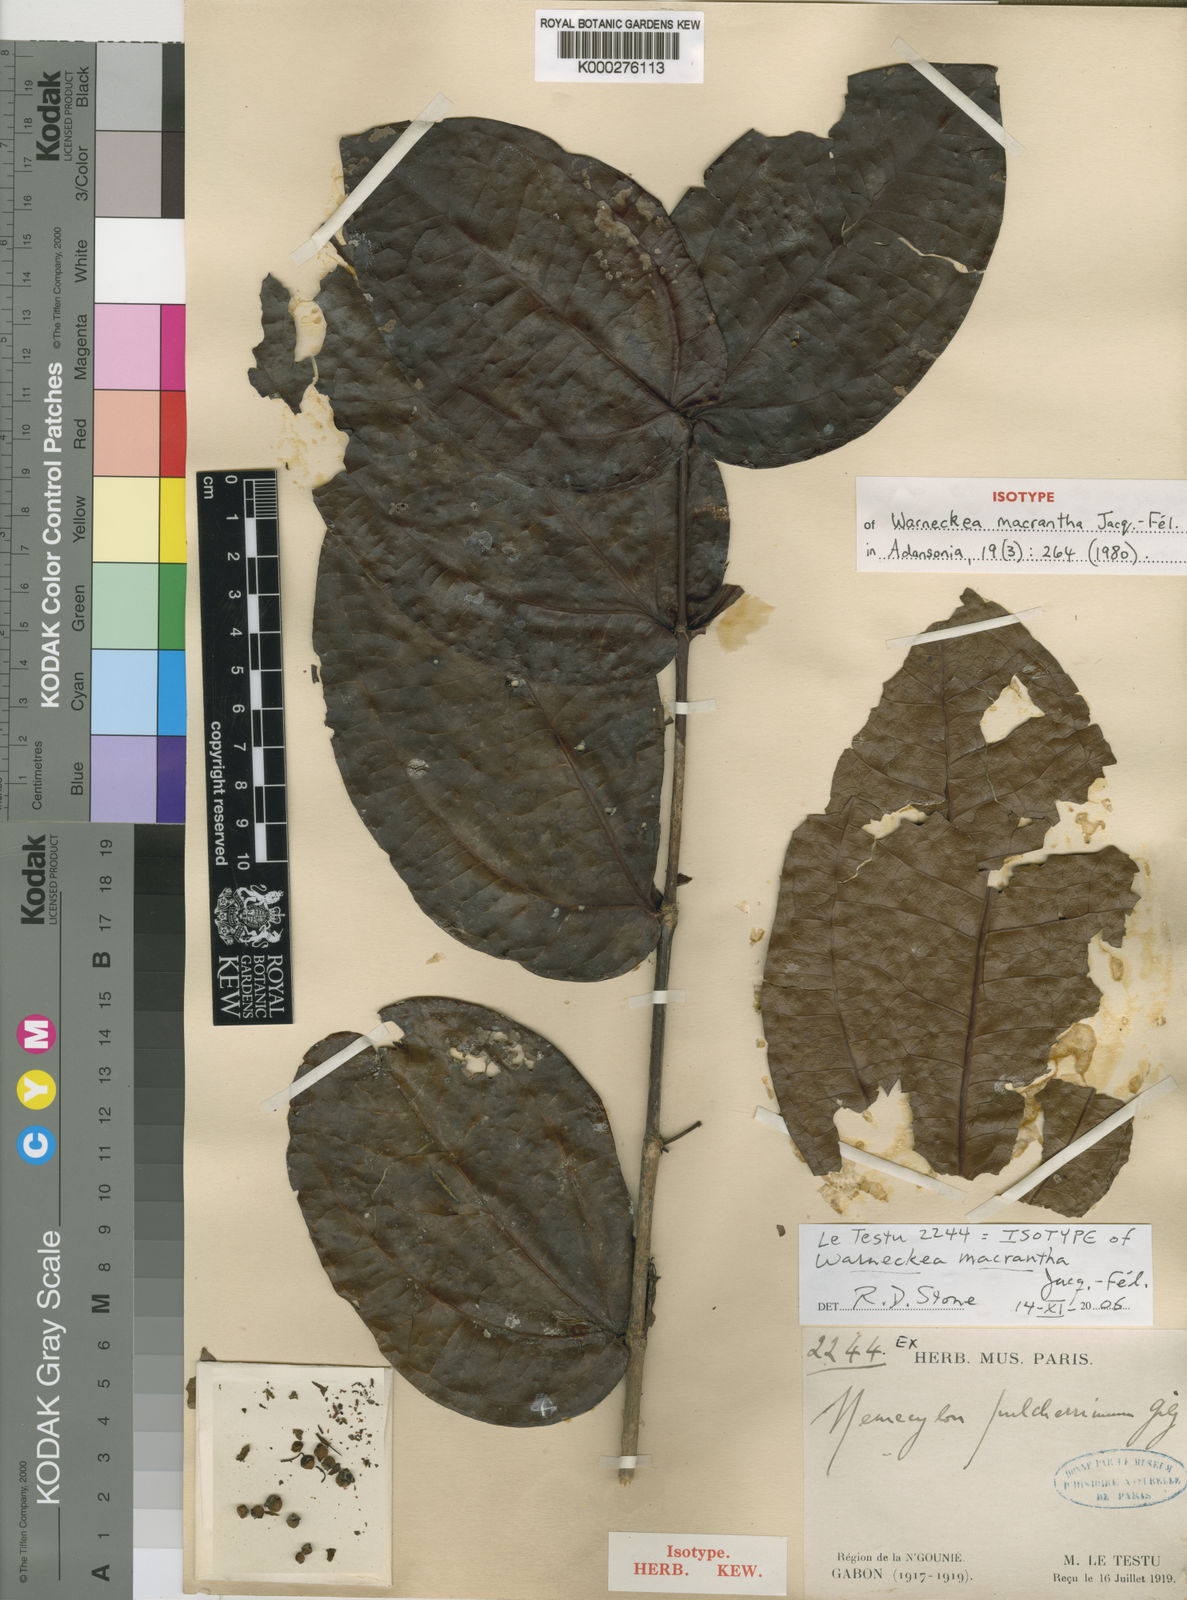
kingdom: Plantae
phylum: Tracheophyta
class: Magnoliopsida
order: Myrtales
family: Melastomataceae
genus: Warneckea
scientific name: Warneckea
